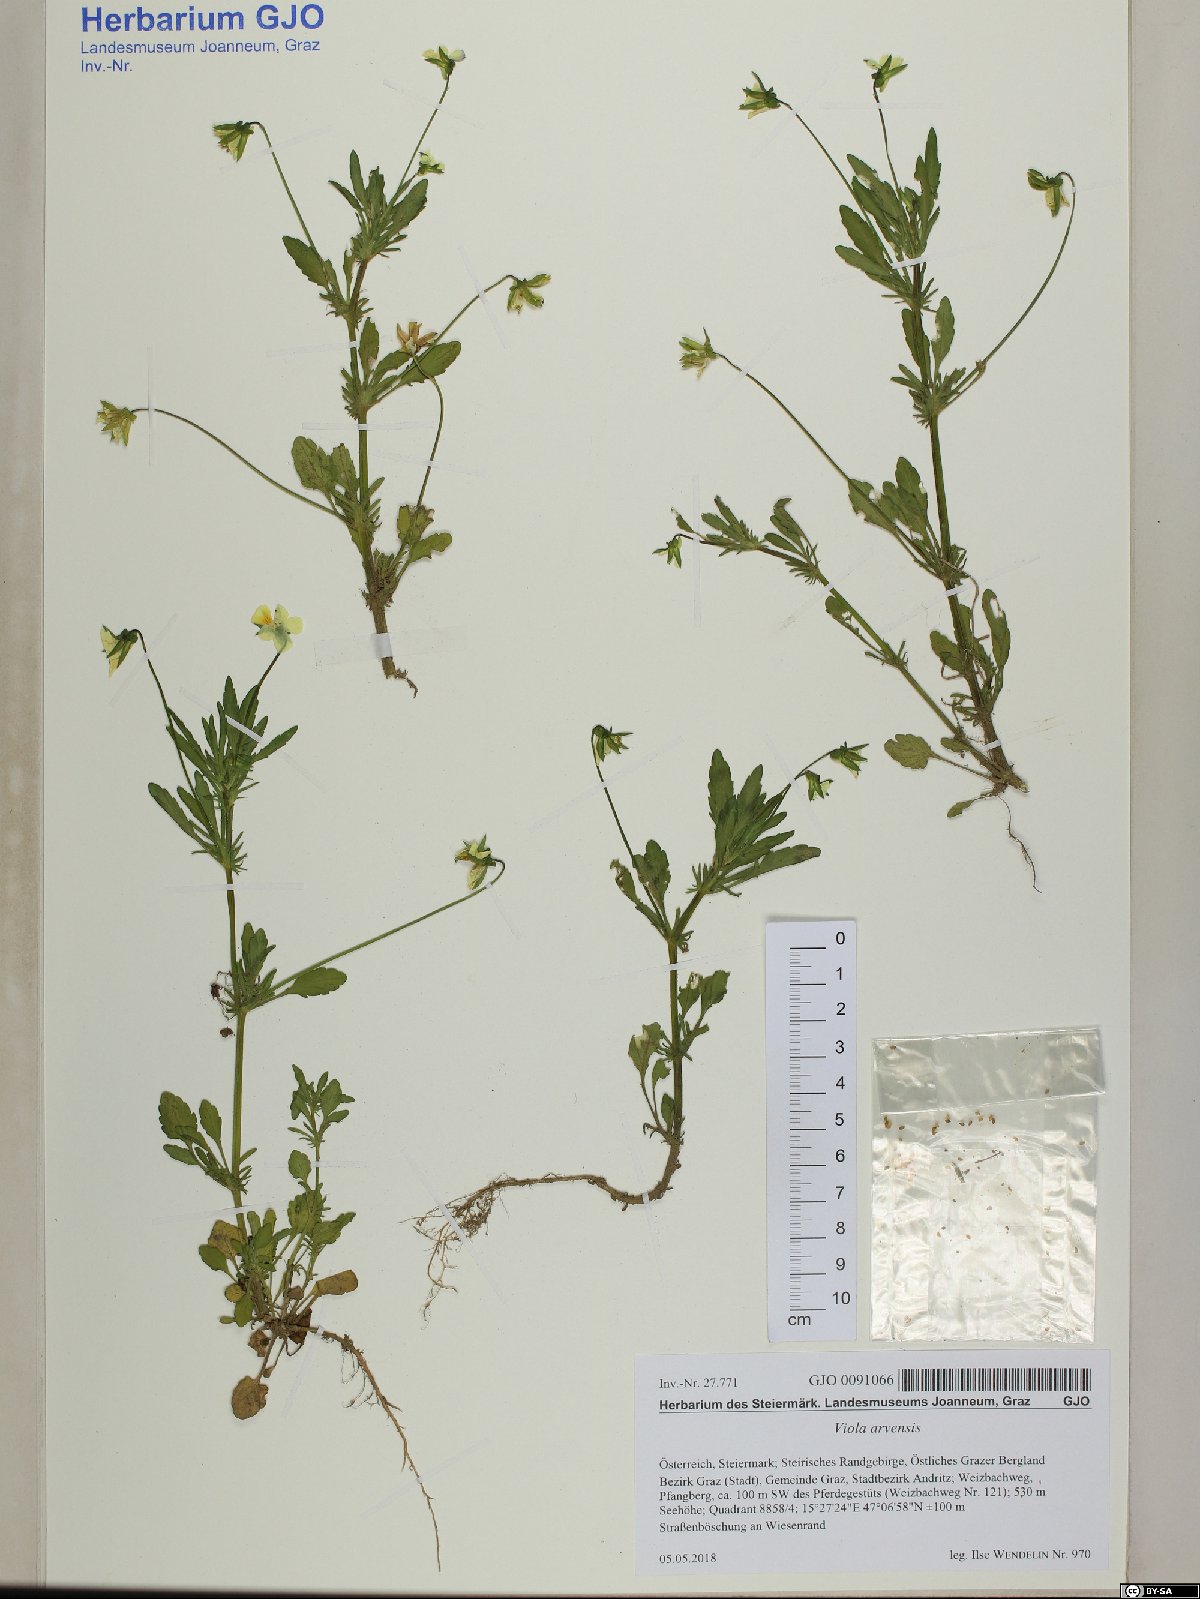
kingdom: Plantae
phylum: Tracheophyta
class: Magnoliopsida
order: Malpighiales
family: Violaceae
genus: Viola
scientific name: Viola arvensis
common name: Field pansy
